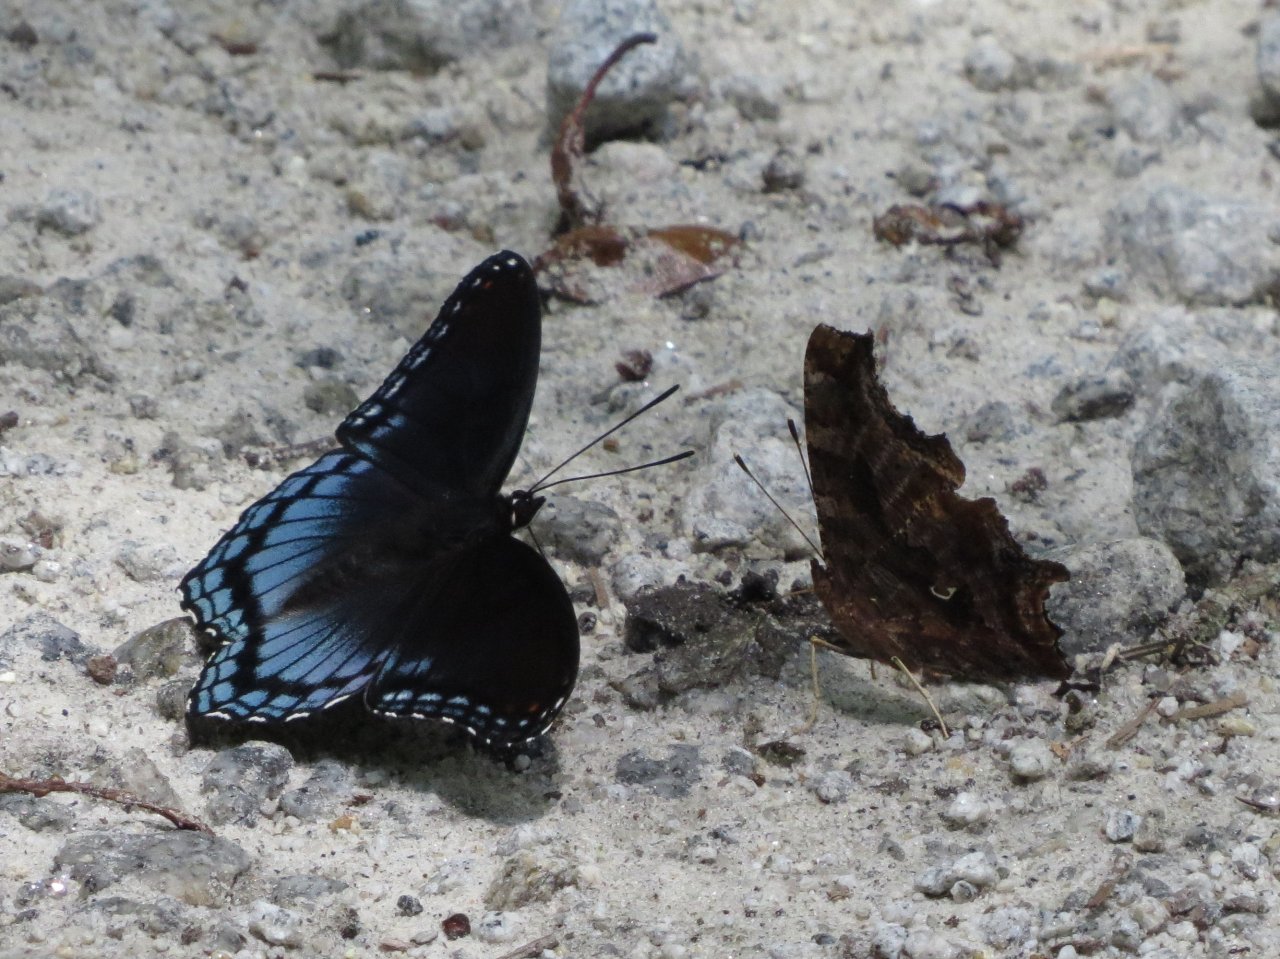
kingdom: Animalia
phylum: Arthropoda
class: Insecta
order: Lepidoptera
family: Nymphalidae
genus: Polygonia
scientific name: Polygonia interrogationis
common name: Question Mark
